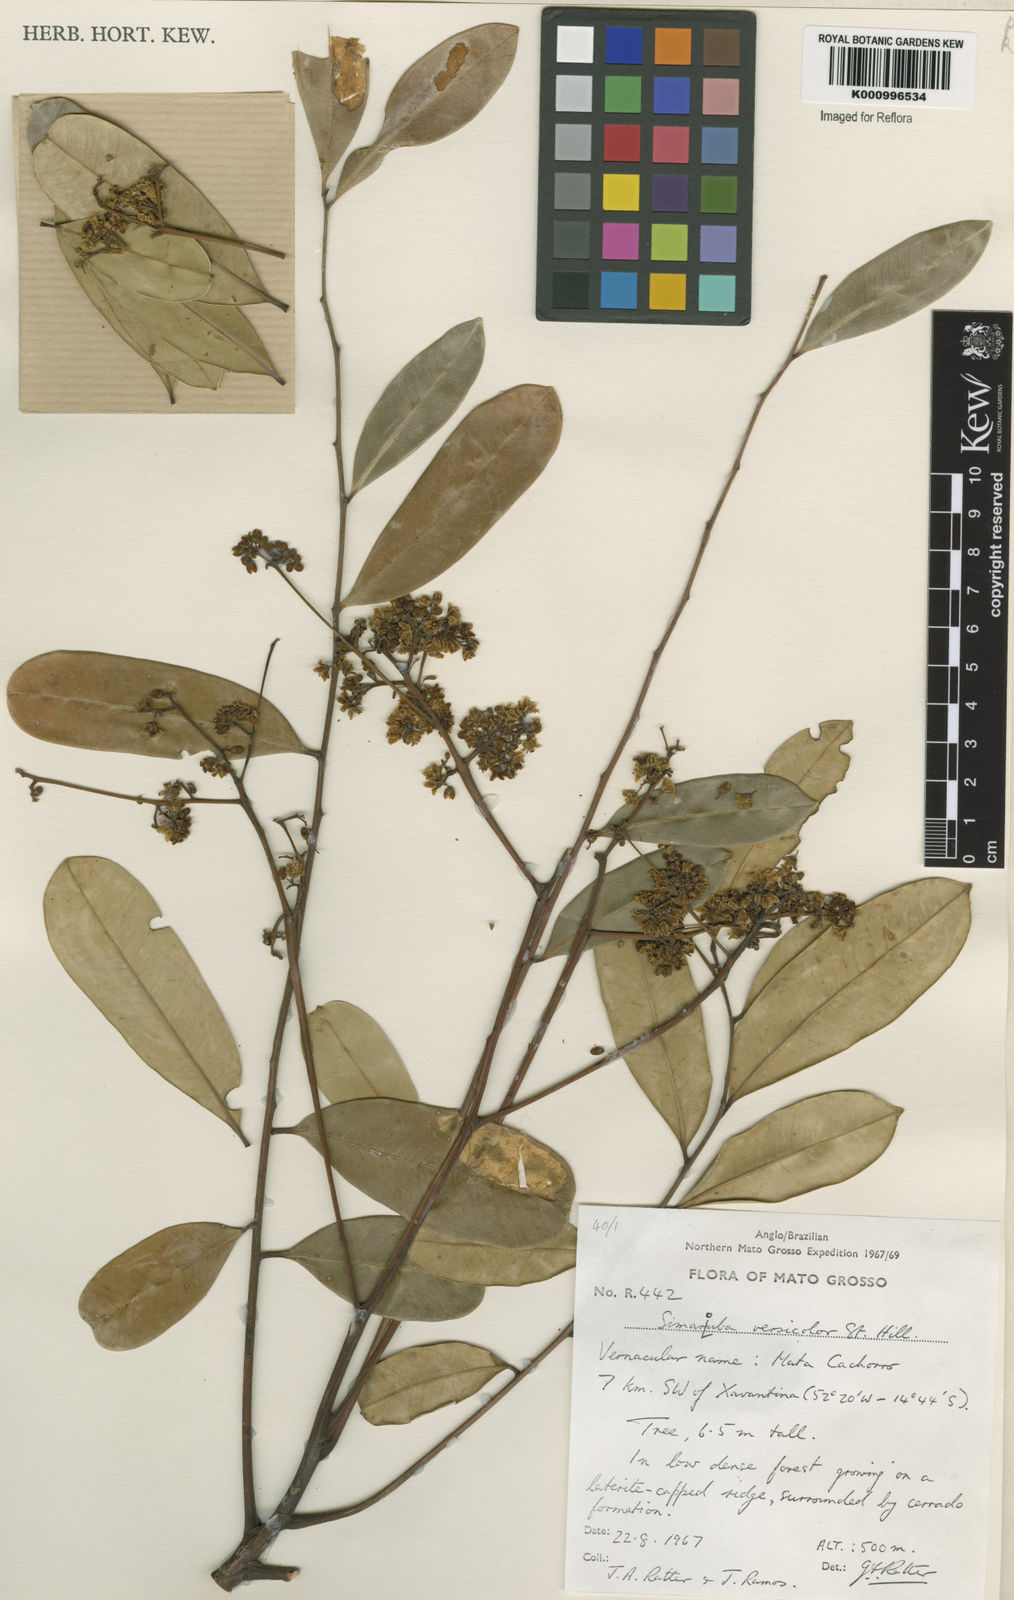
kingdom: Plantae
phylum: Tracheophyta
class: Magnoliopsida
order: Sapindales
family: Simaroubaceae
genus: Simarouba
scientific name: Simarouba versicolor
